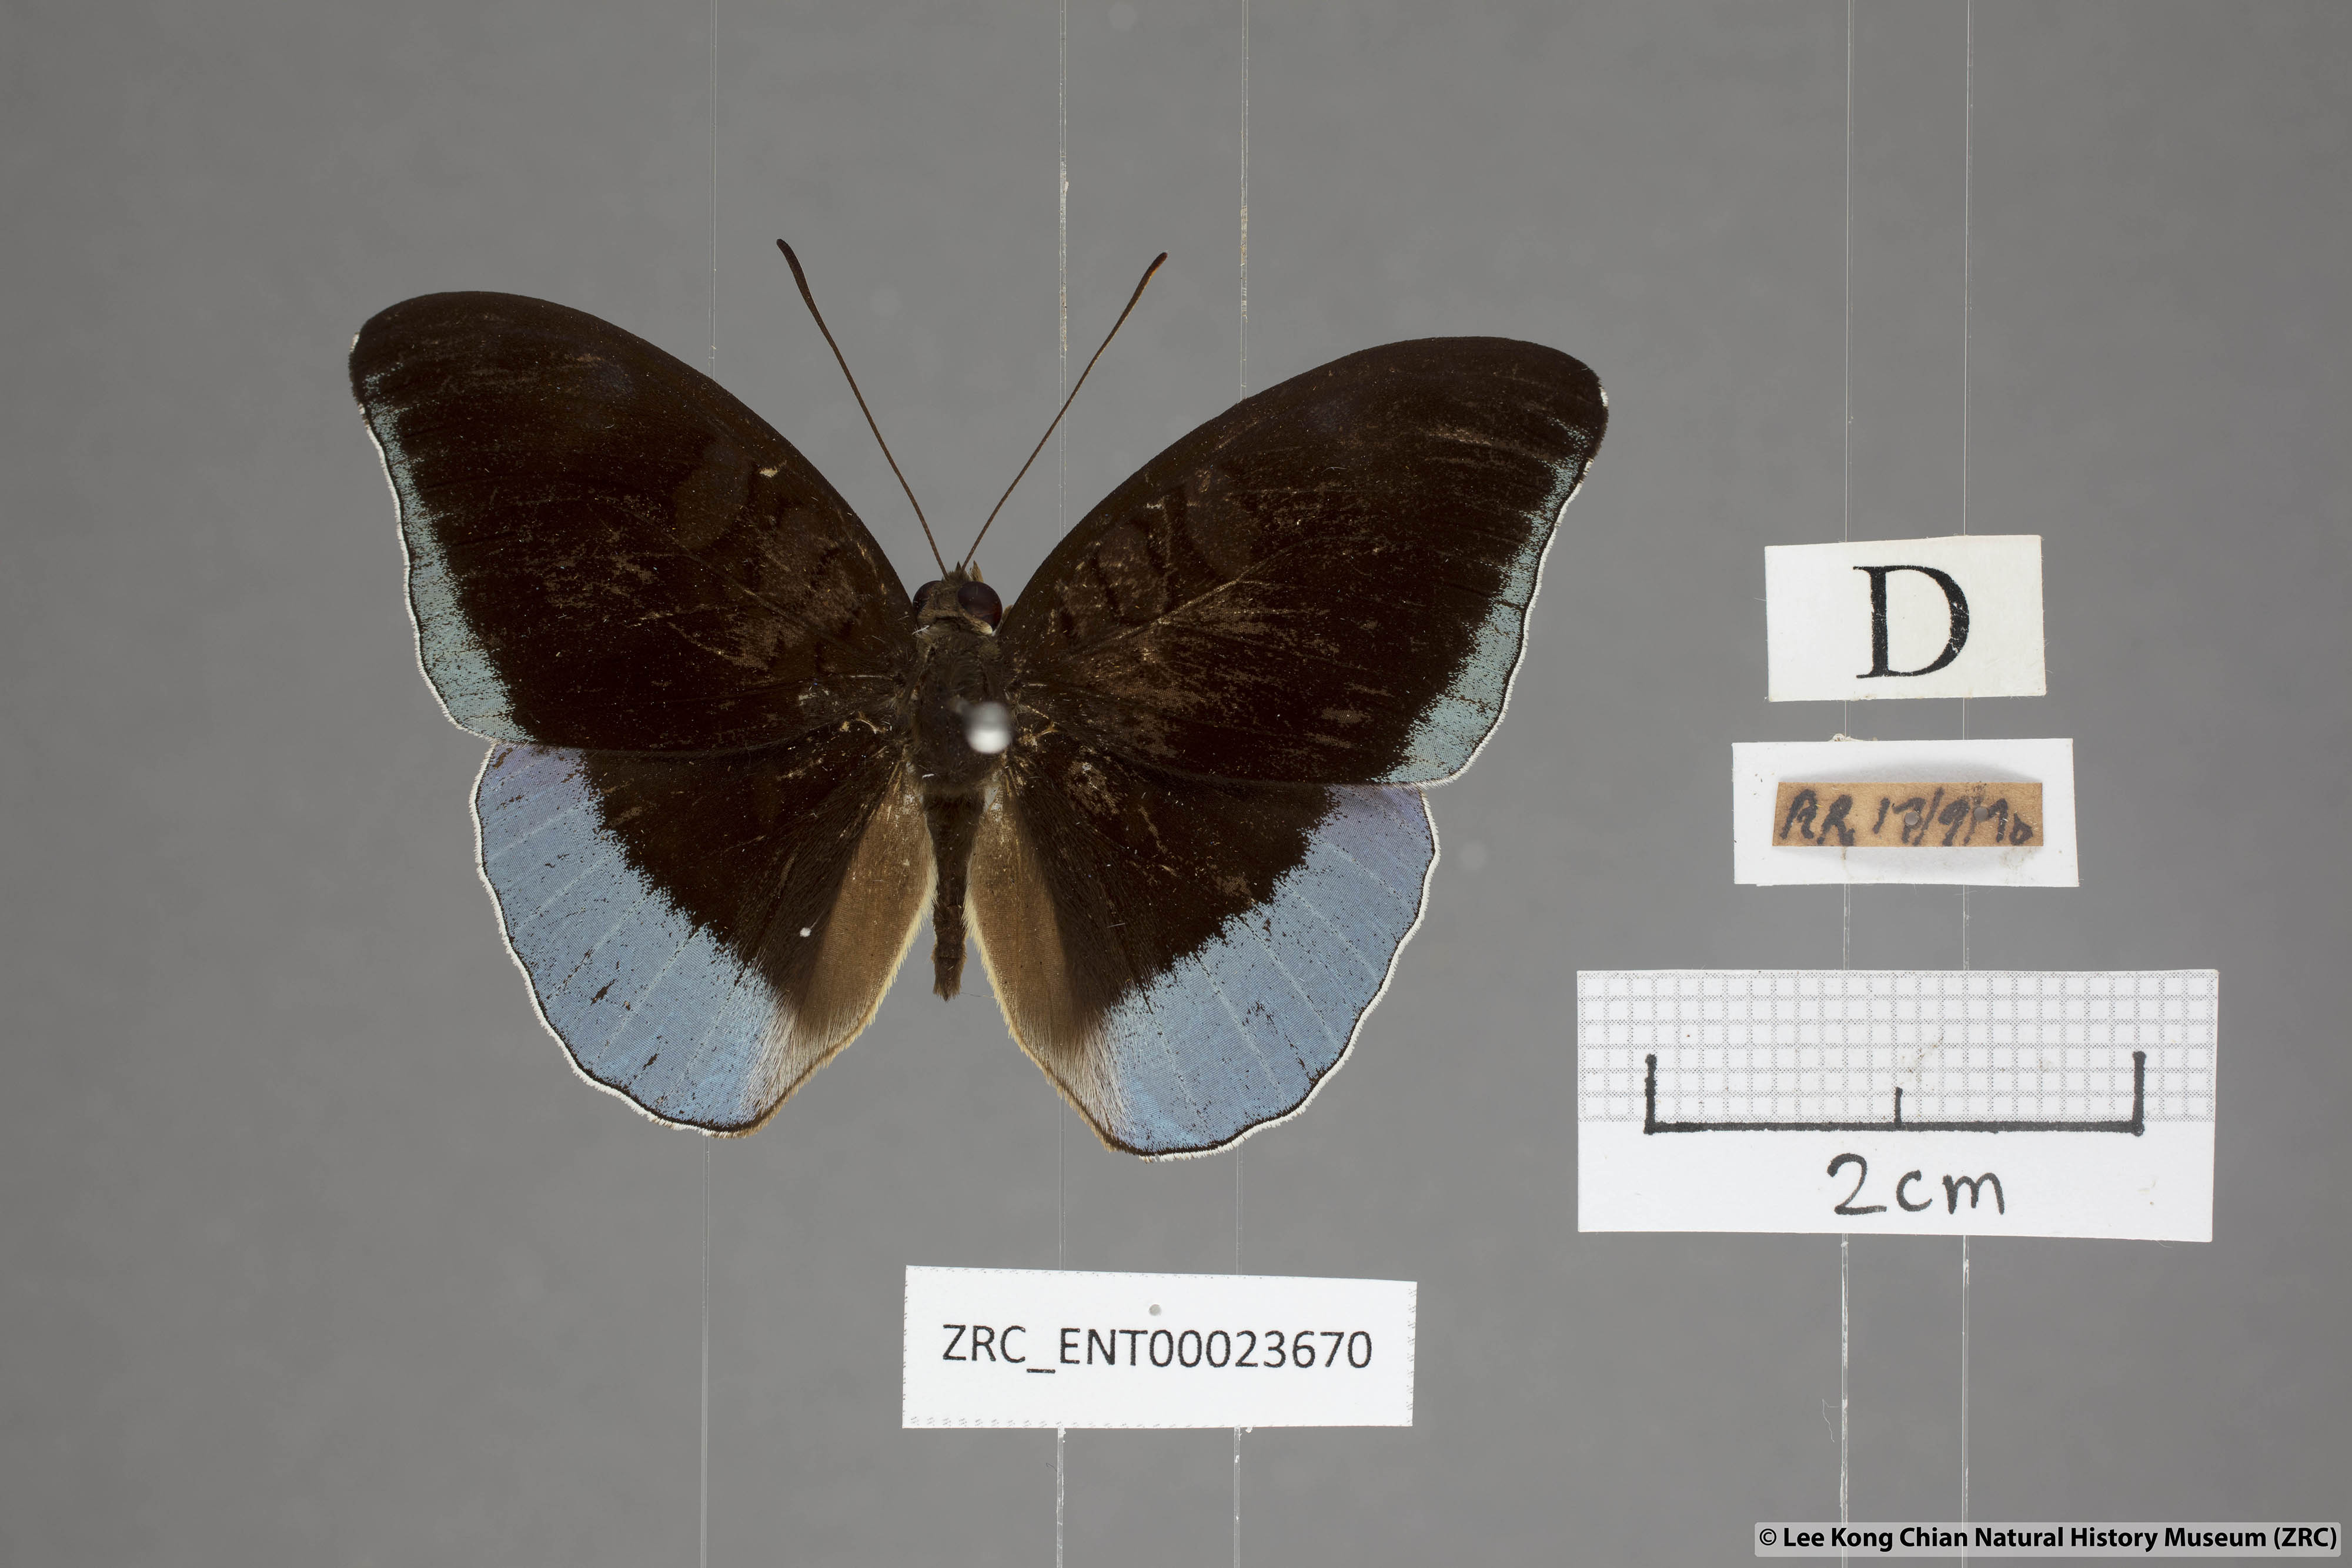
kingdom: Animalia
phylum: Arthropoda
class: Insecta
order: Lepidoptera
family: Nymphalidae
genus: Tanaecia
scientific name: Tanaecia iapis
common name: Horsfield's baron
